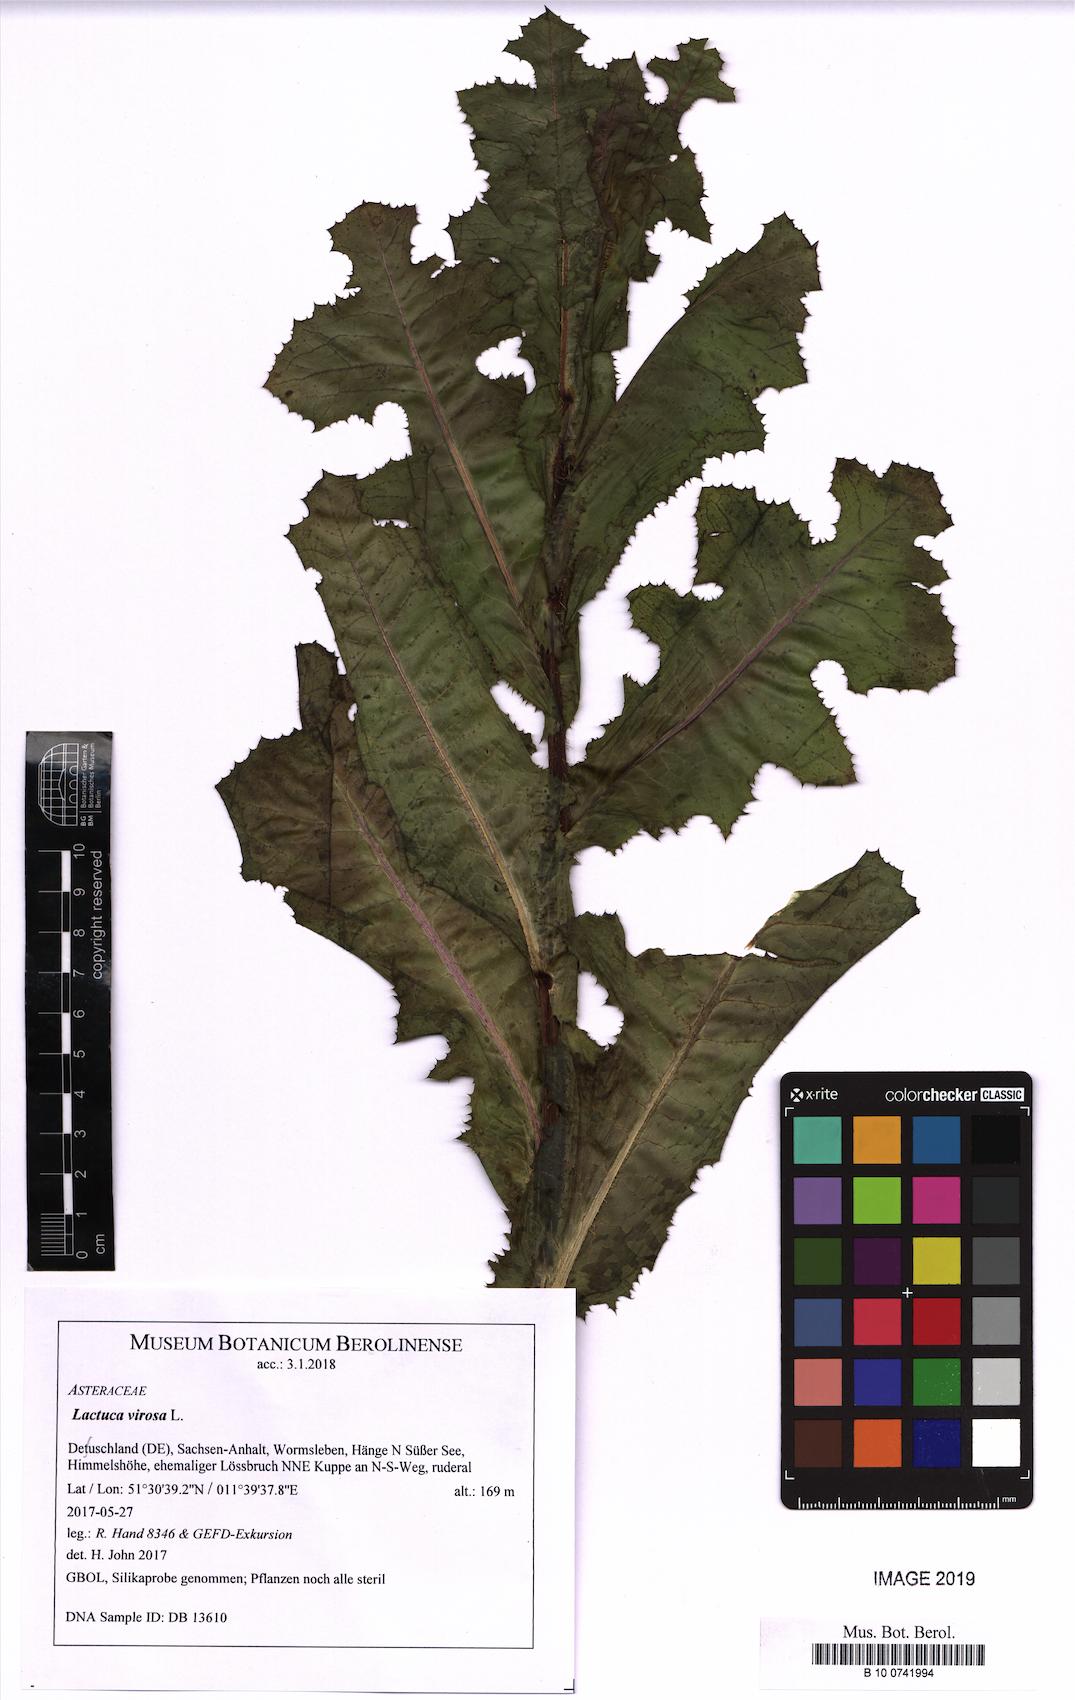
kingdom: Plantae
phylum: Tracheophyta
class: Magnoliopsida
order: Asterales
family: Asteraceae
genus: Lactuca
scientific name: Lactuca virosa
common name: Great lettuce
